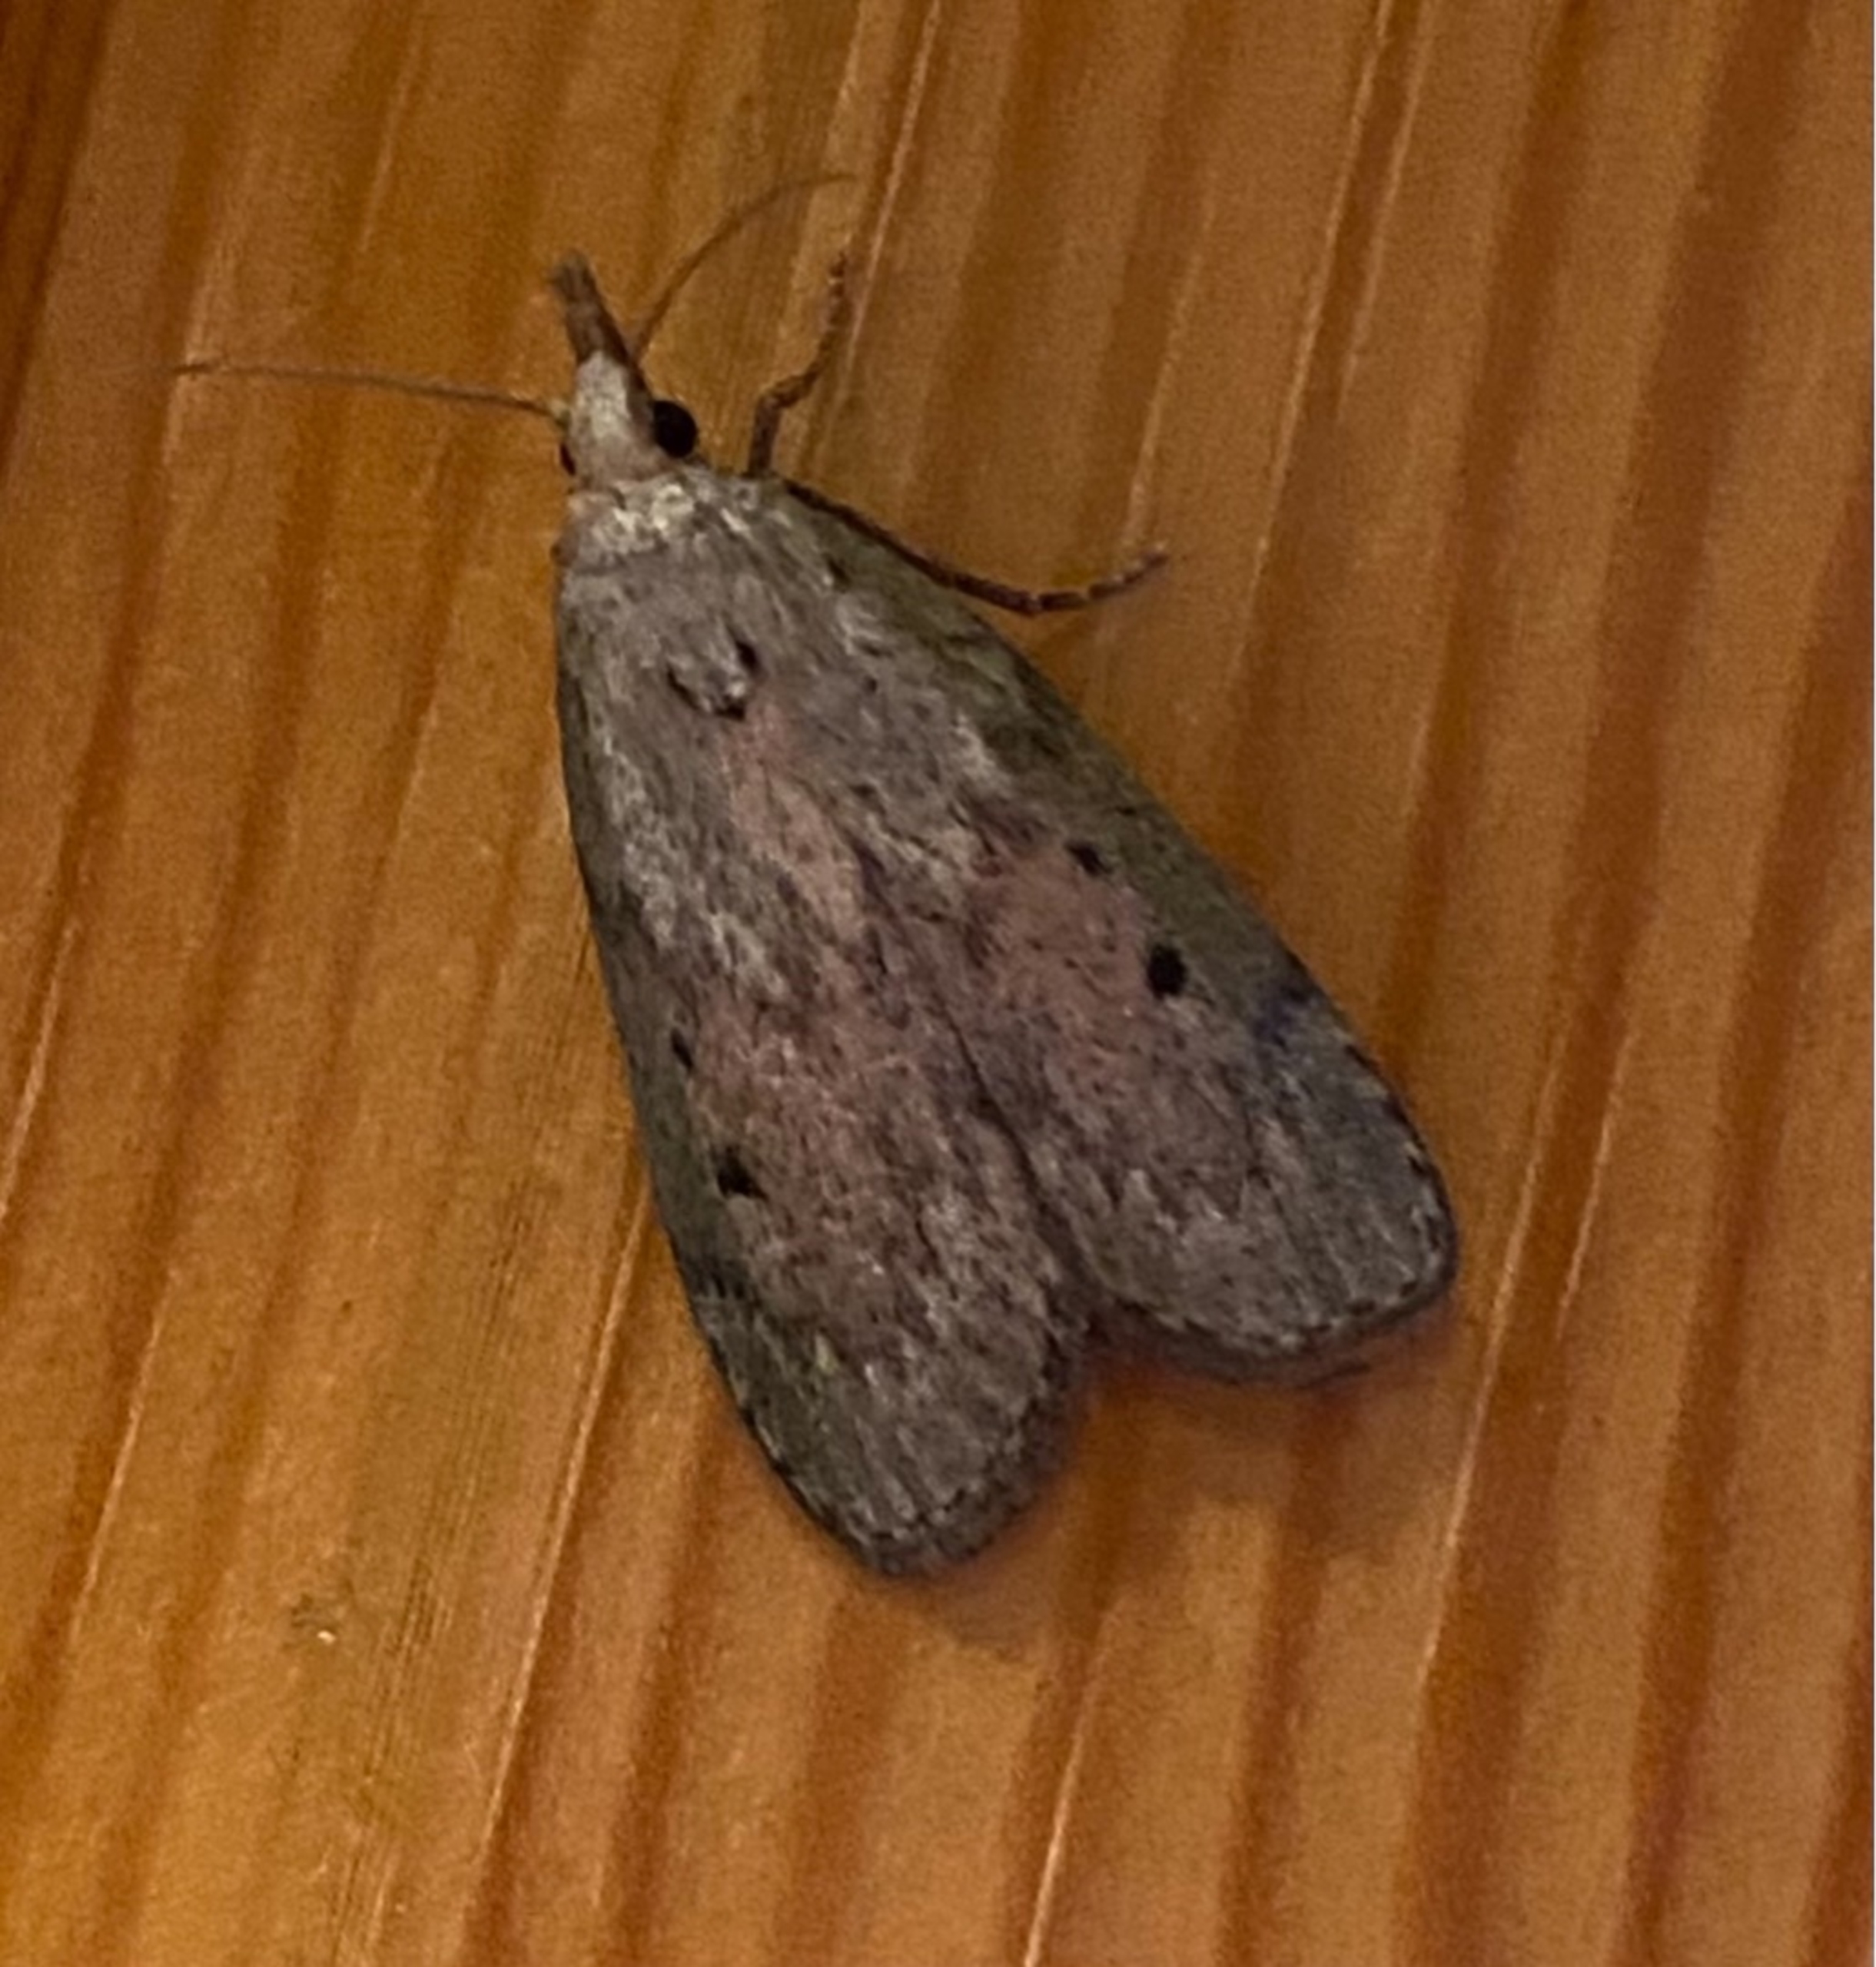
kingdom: Animalia
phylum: Arthropoda
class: Insecta
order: Lepidoptera
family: Pyralidae
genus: Aphomia
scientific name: Aphomia sociella
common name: Humlevoksmøl
